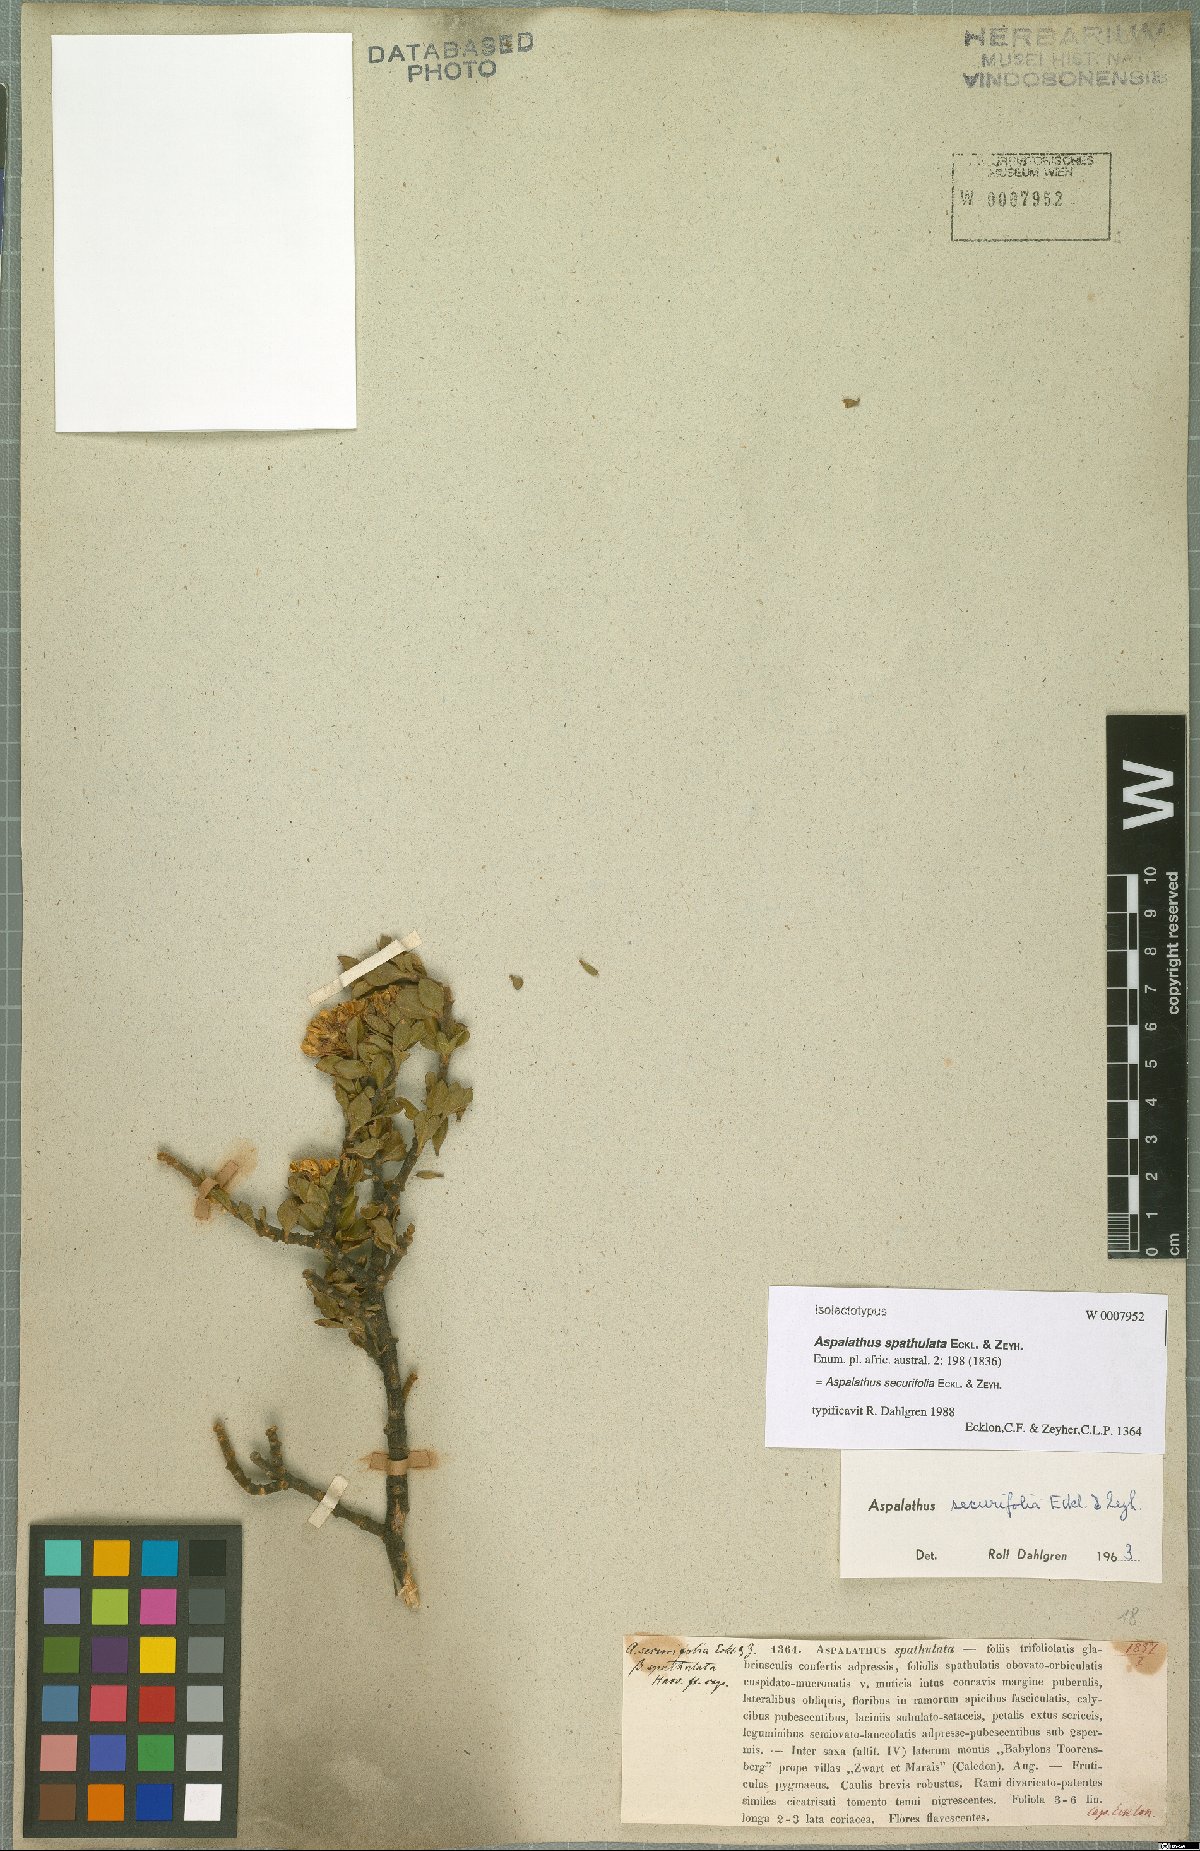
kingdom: Plantae
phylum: Tracheophyta
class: Magnoliopsida
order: Fabales
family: Fabaceae
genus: Aspalathus
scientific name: Aspalathus securifolia
